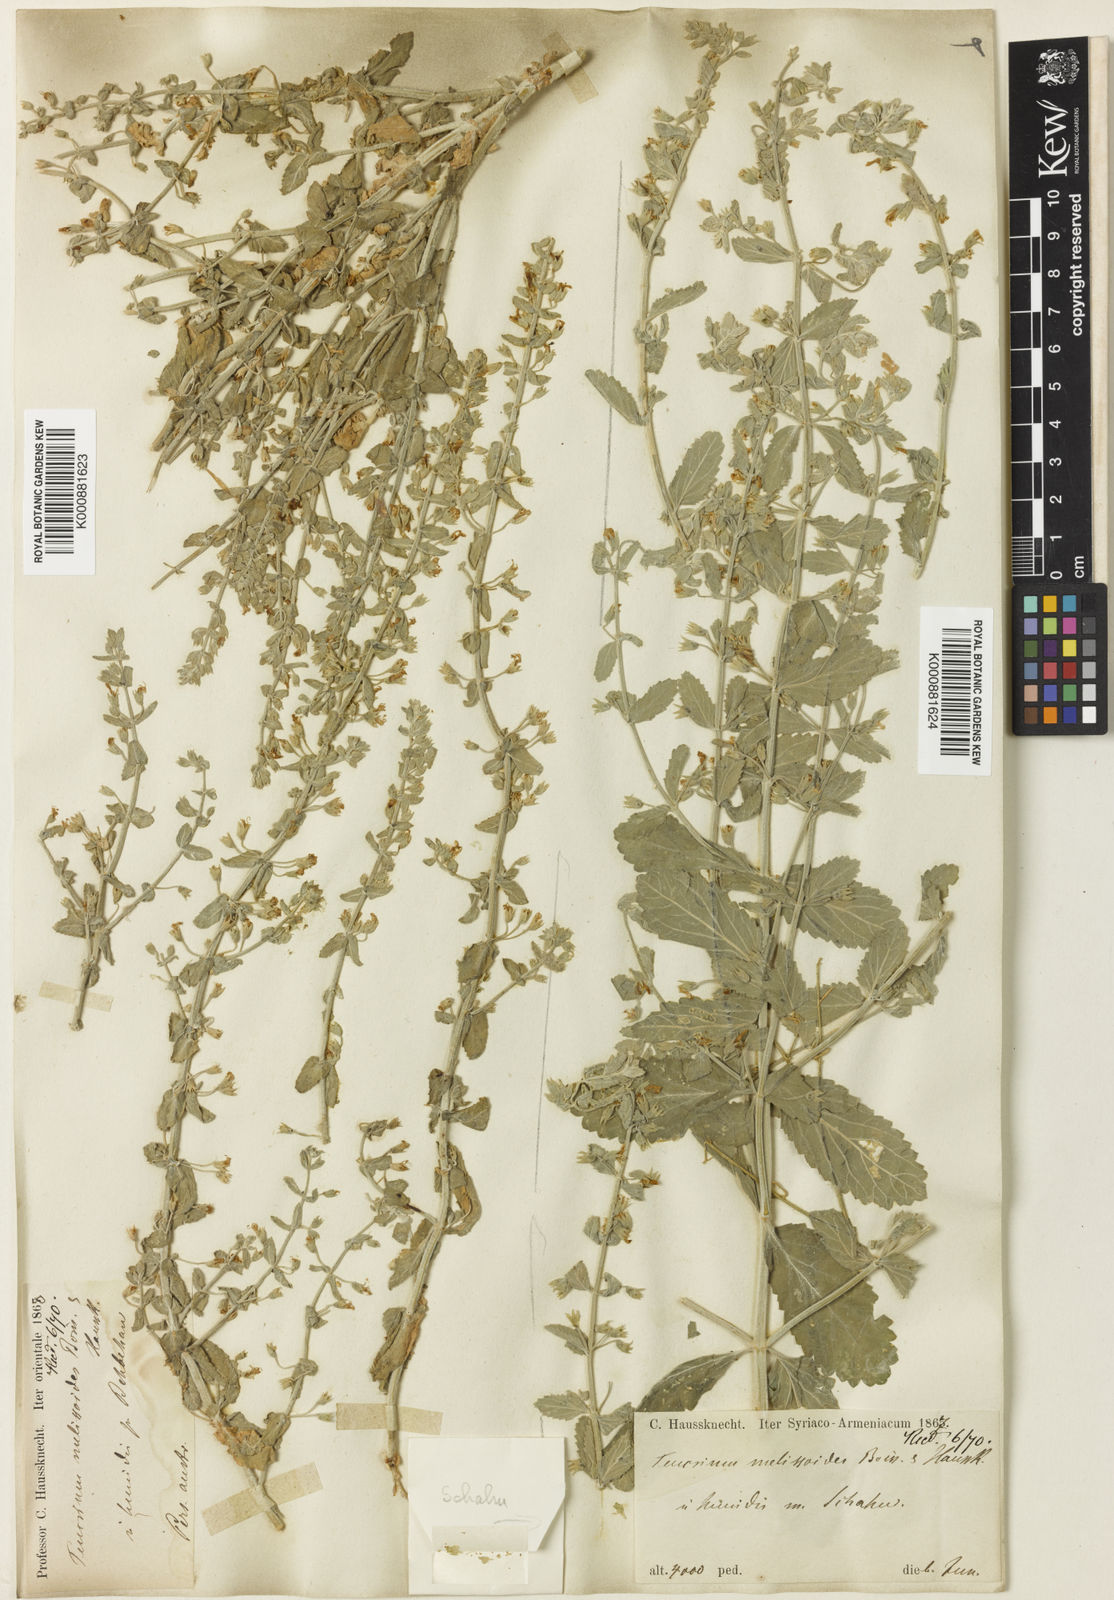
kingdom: Plantae
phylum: Tracheophyta
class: Magnoliopsida
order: Lamiales
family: Lamiaceae
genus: Teucrium
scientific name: Teucrium melissoides
